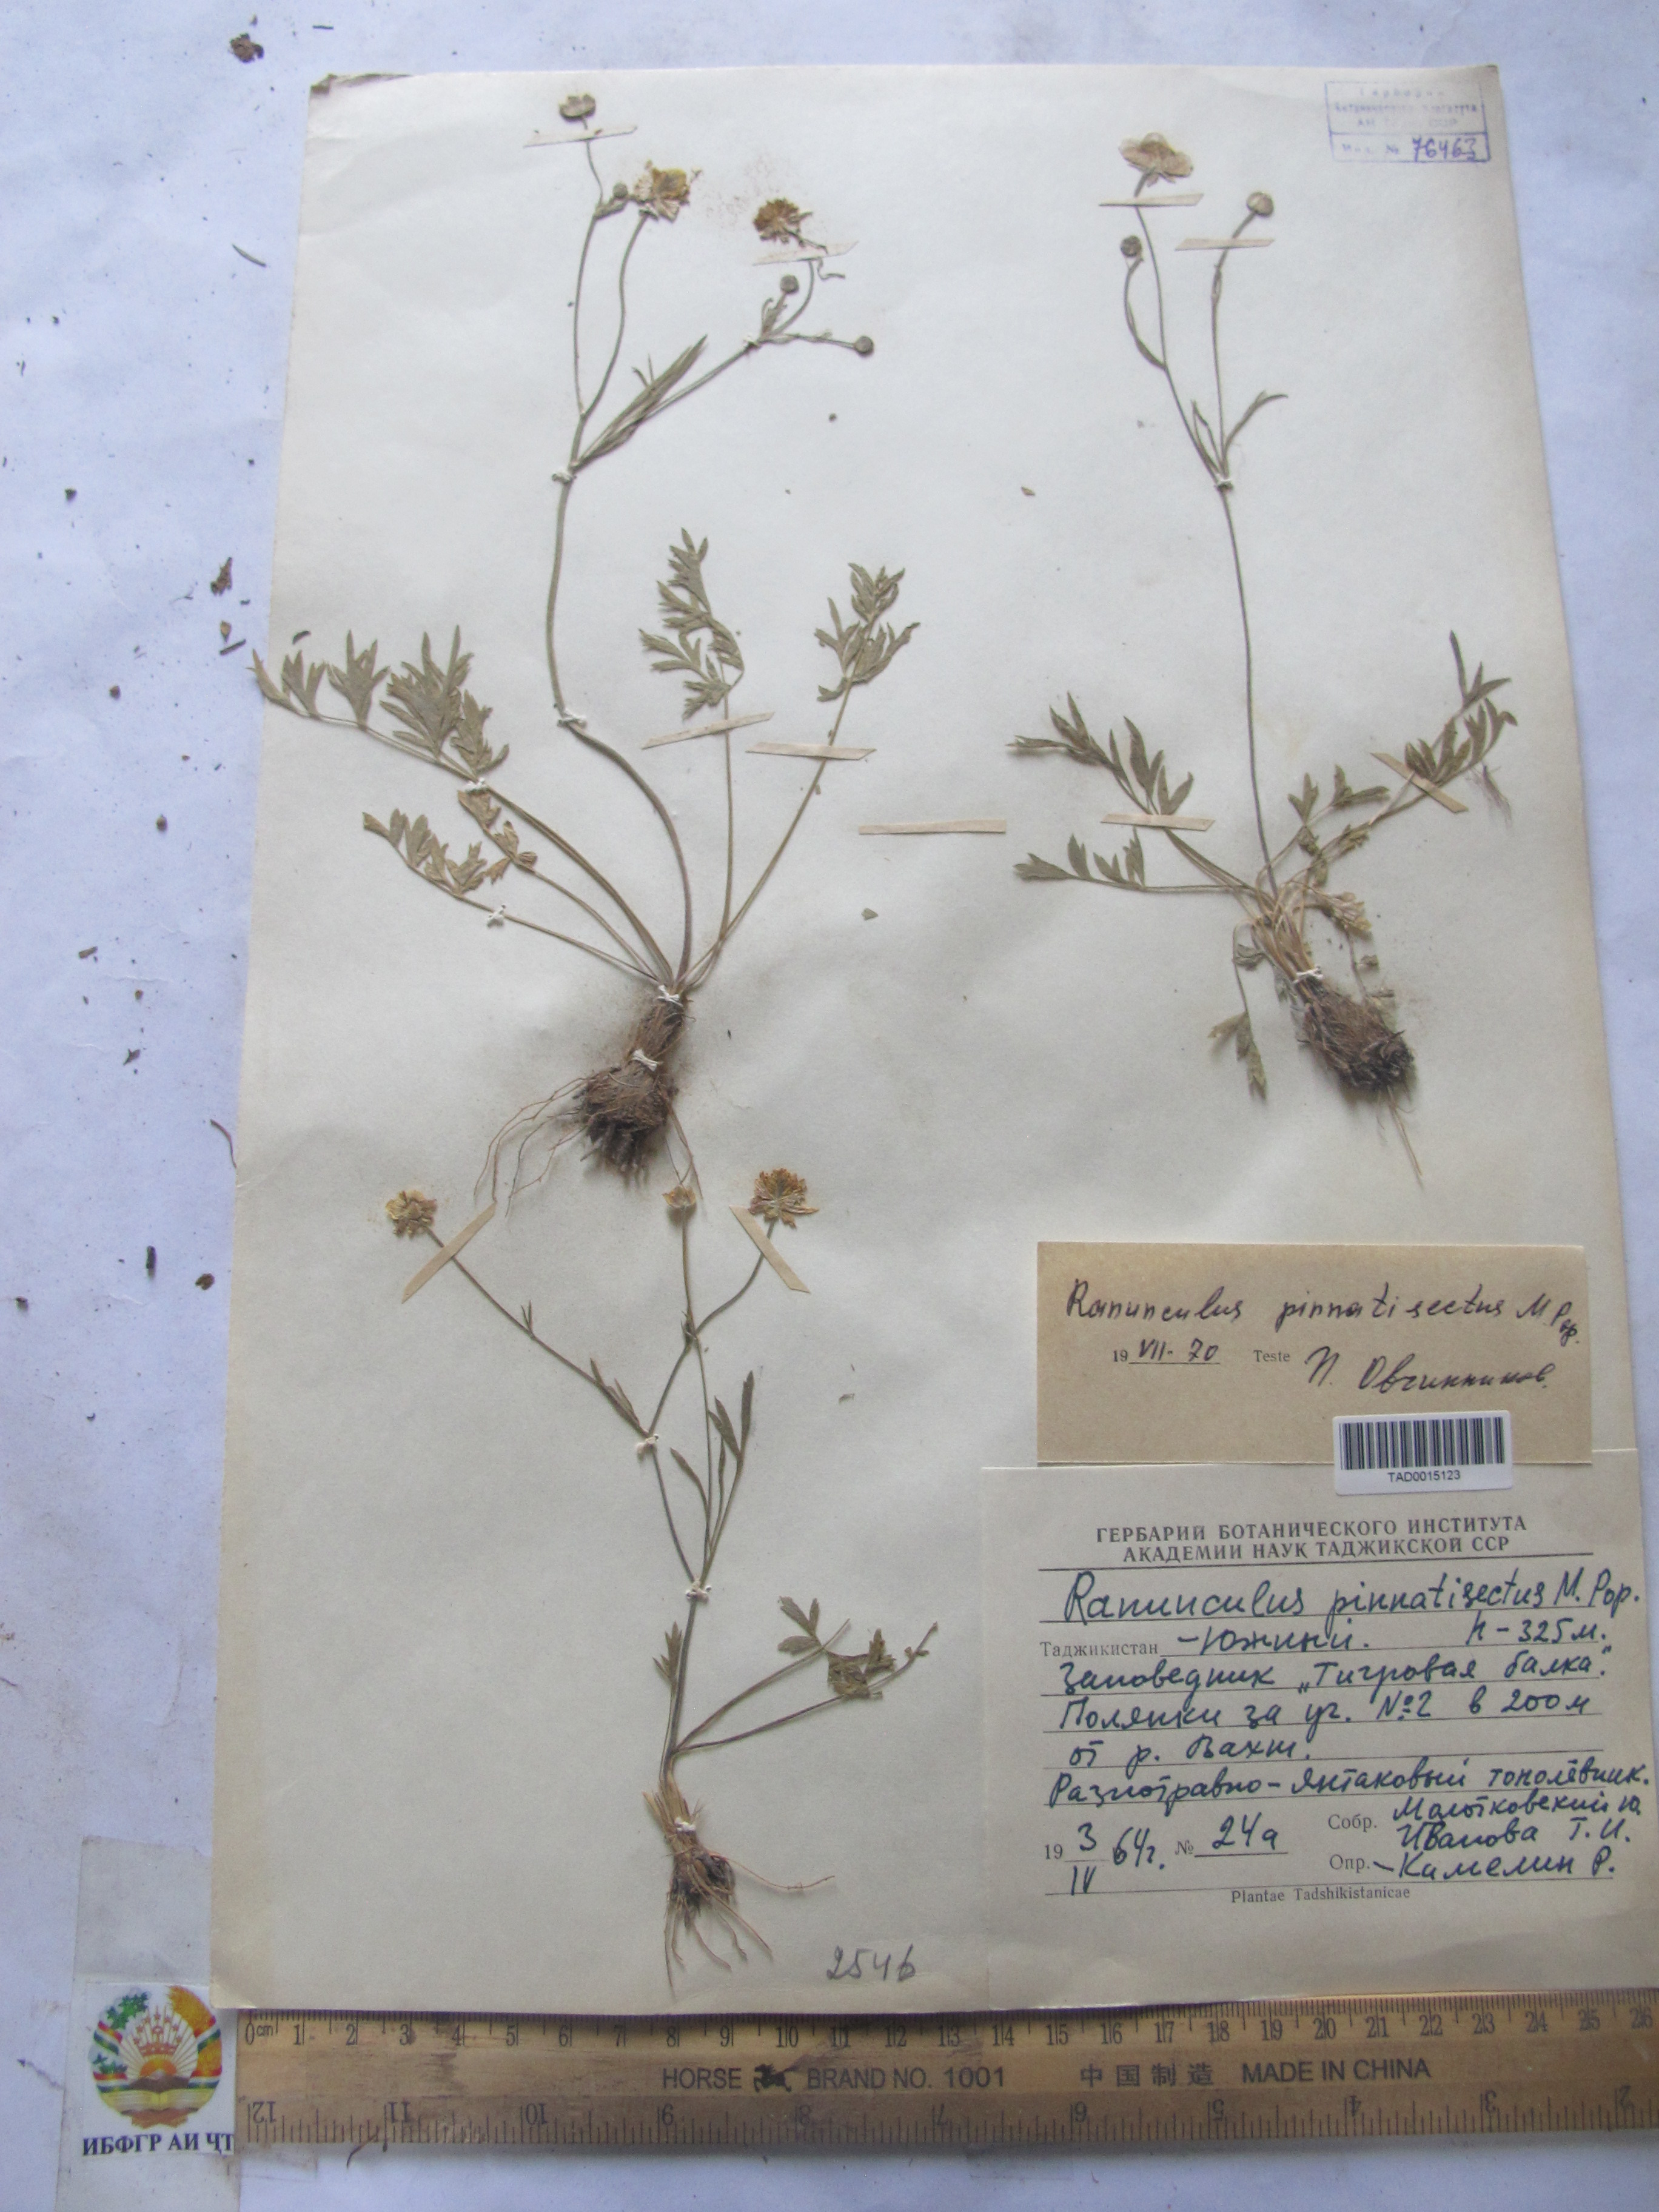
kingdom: Plantae
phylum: Tracheophyta
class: Magnoliopsida
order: Ranunculales
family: Ranunculaceae
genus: Ranunculus
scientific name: Ranunculus pinnatisectus
